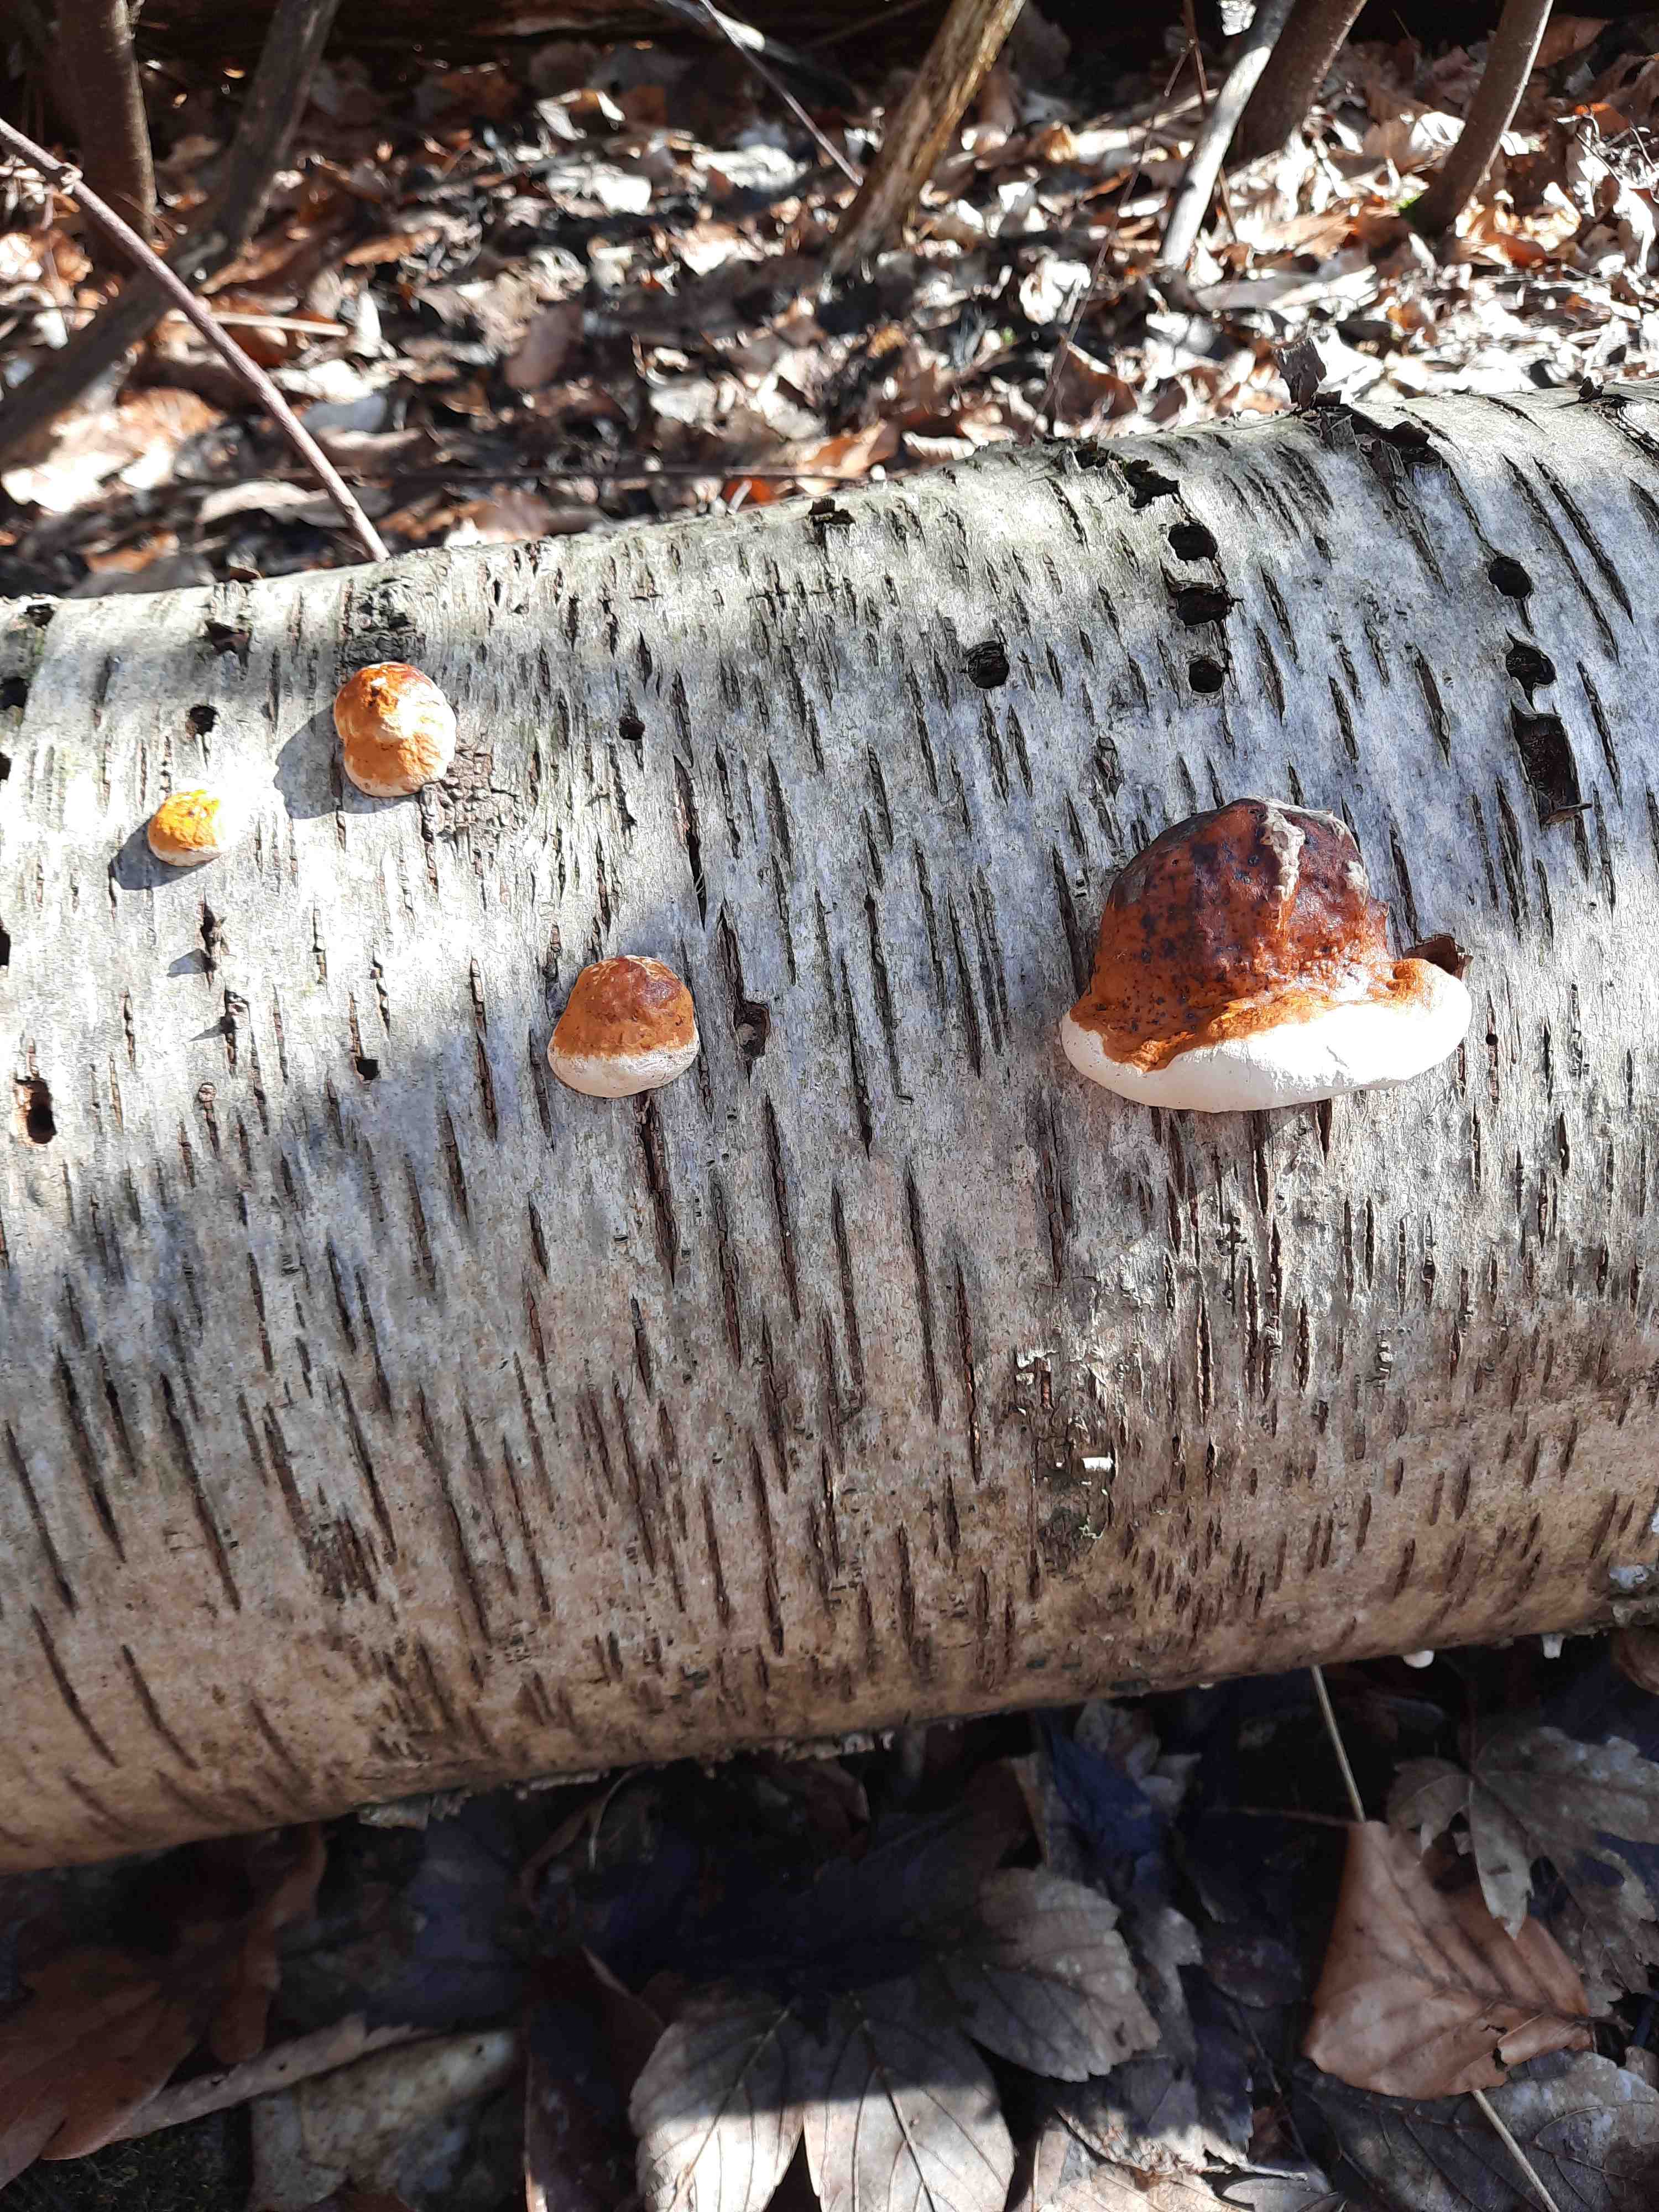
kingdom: Fungi
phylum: Basidiomycota
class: Agaricomycetes
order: Polyporales
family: Fomitopsidaceae
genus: Fomitopsis
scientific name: Fomitopsis pinicola
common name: randbæltet hovporesvamp
